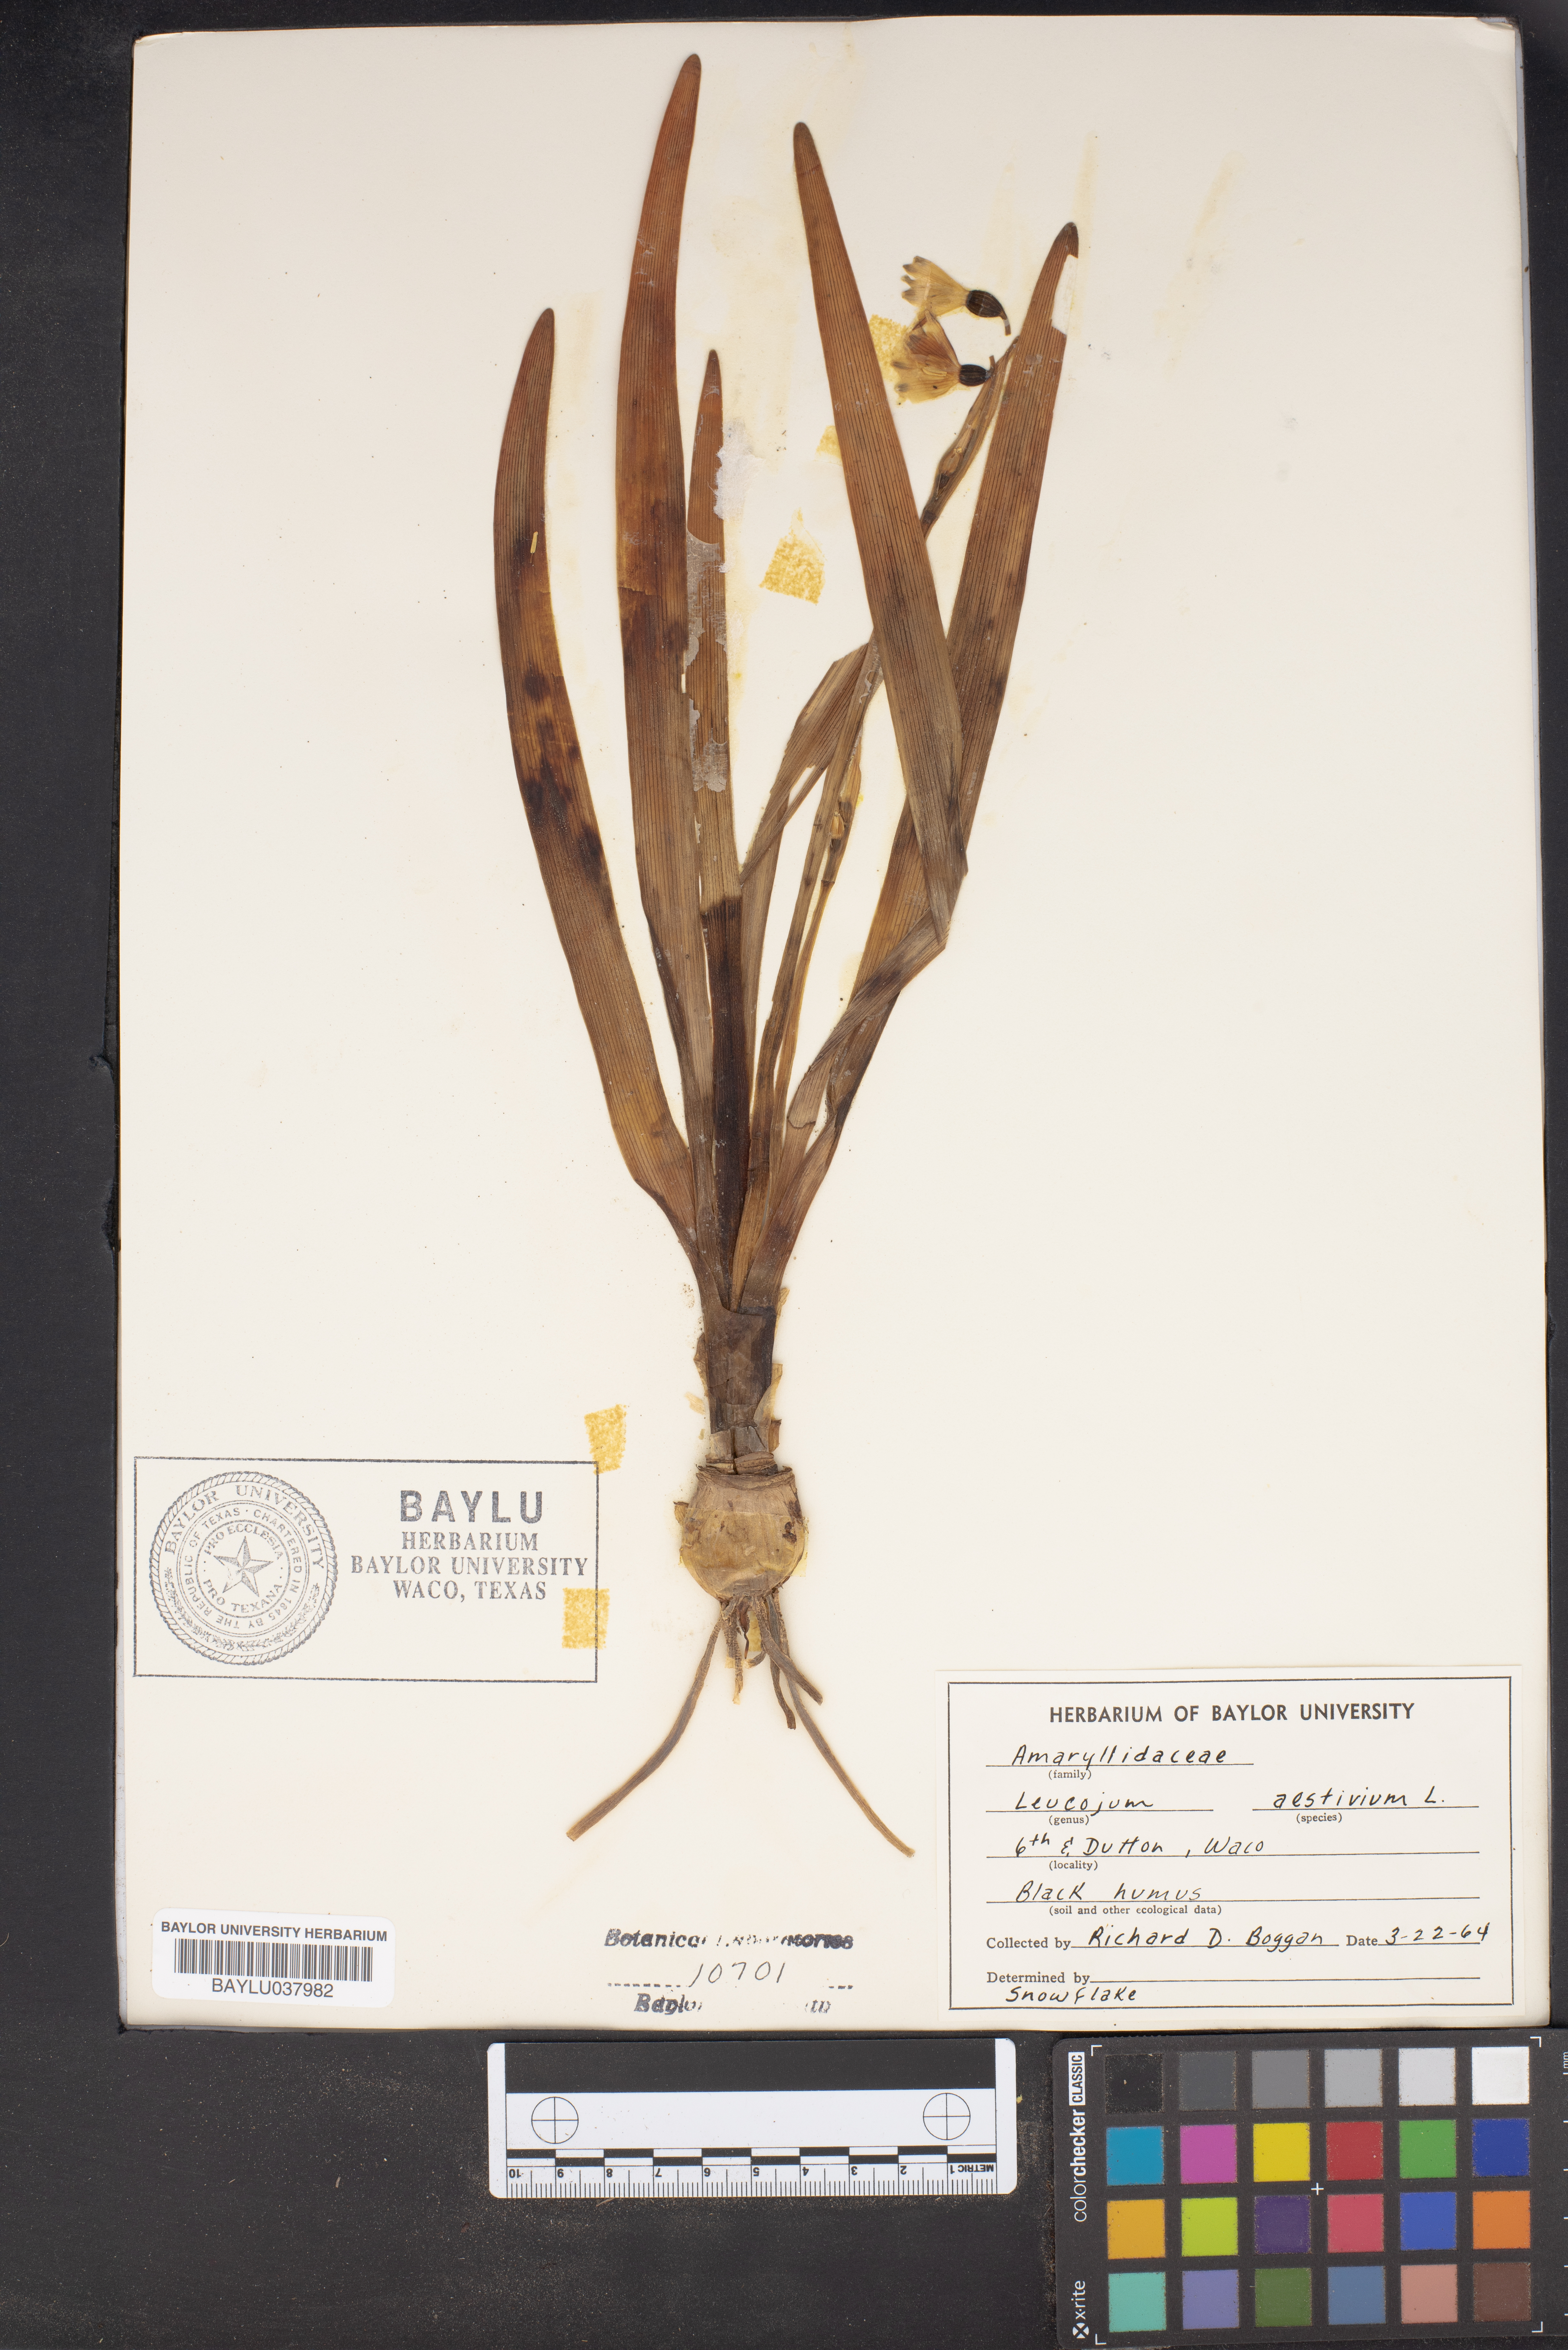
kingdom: Plantae
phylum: Tracheophyta
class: Liliopsida
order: Asparagales
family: Amaryllidaceae
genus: Leucojum
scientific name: Leucojum aestivum
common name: Summer snowflake
